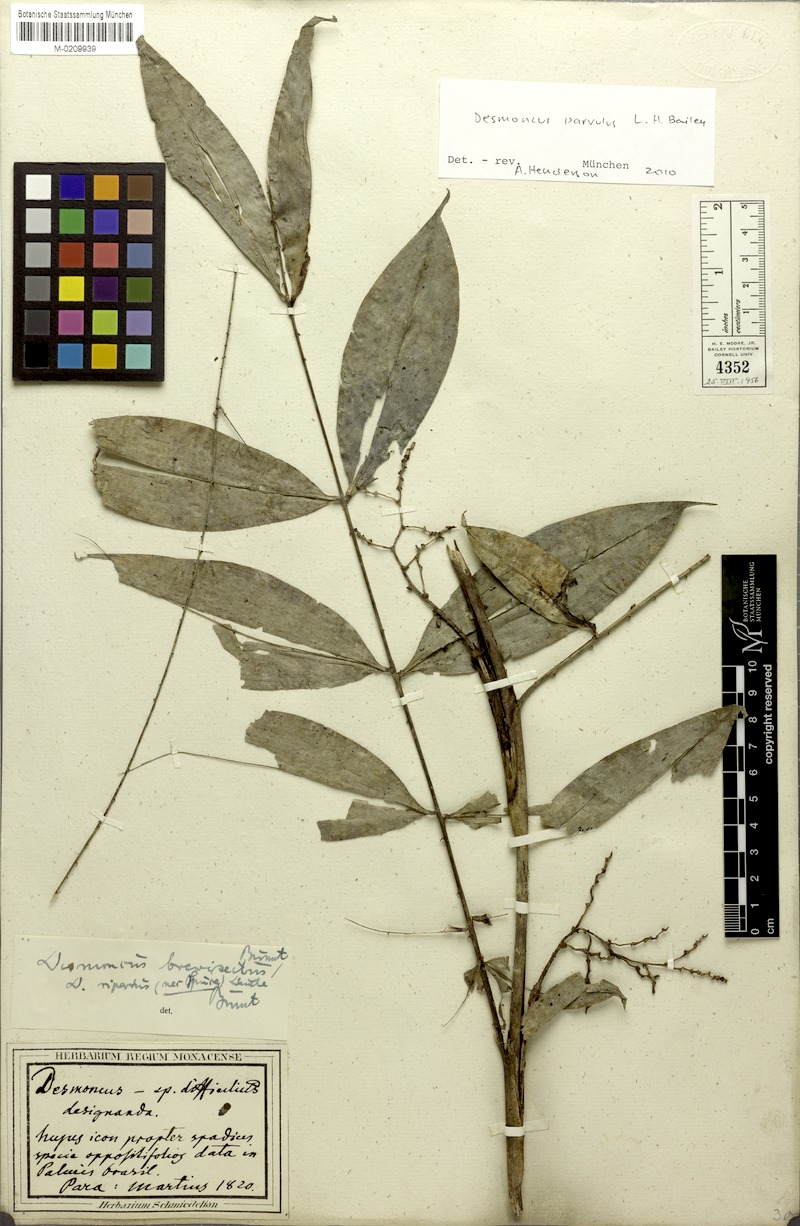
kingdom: Plantae
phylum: Tracheophyta
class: Liliopsida
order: Arecales
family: Arecaceae
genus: Desmoncus
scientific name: Desmoncus polyacanthos
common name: Suriname bramble palm
